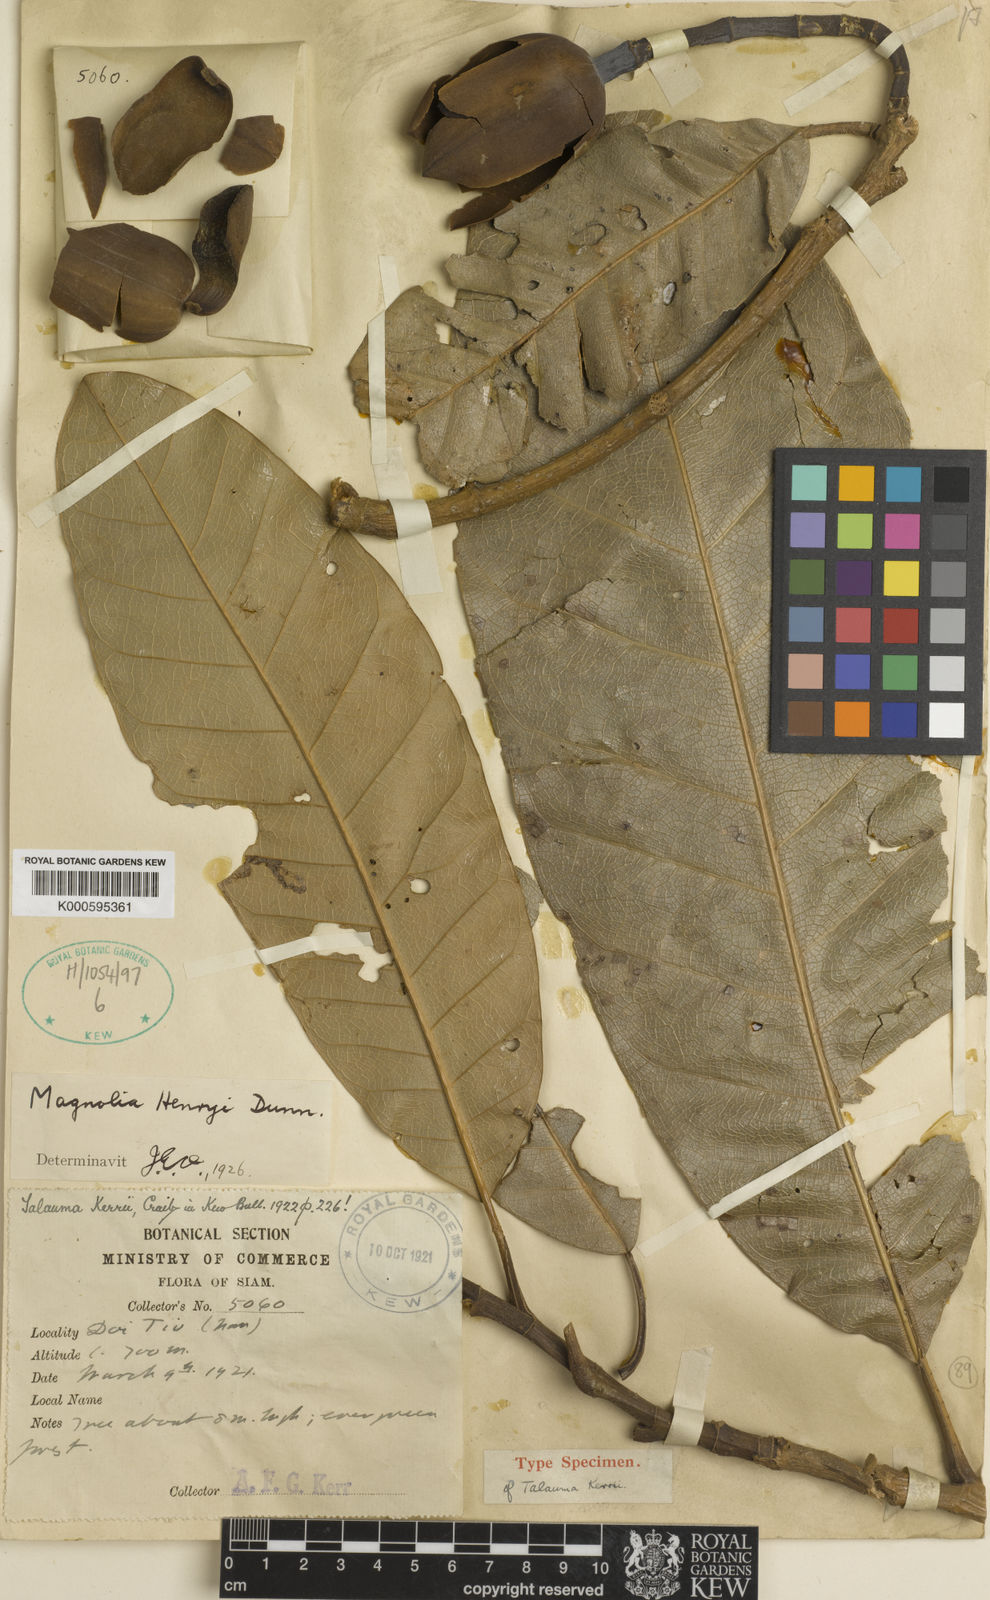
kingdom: Plantae
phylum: Tracheophyta
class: Magnoliopsida
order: Magnoliales
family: Magnoliaceae
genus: Magnolia
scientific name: Magnolia henryi
